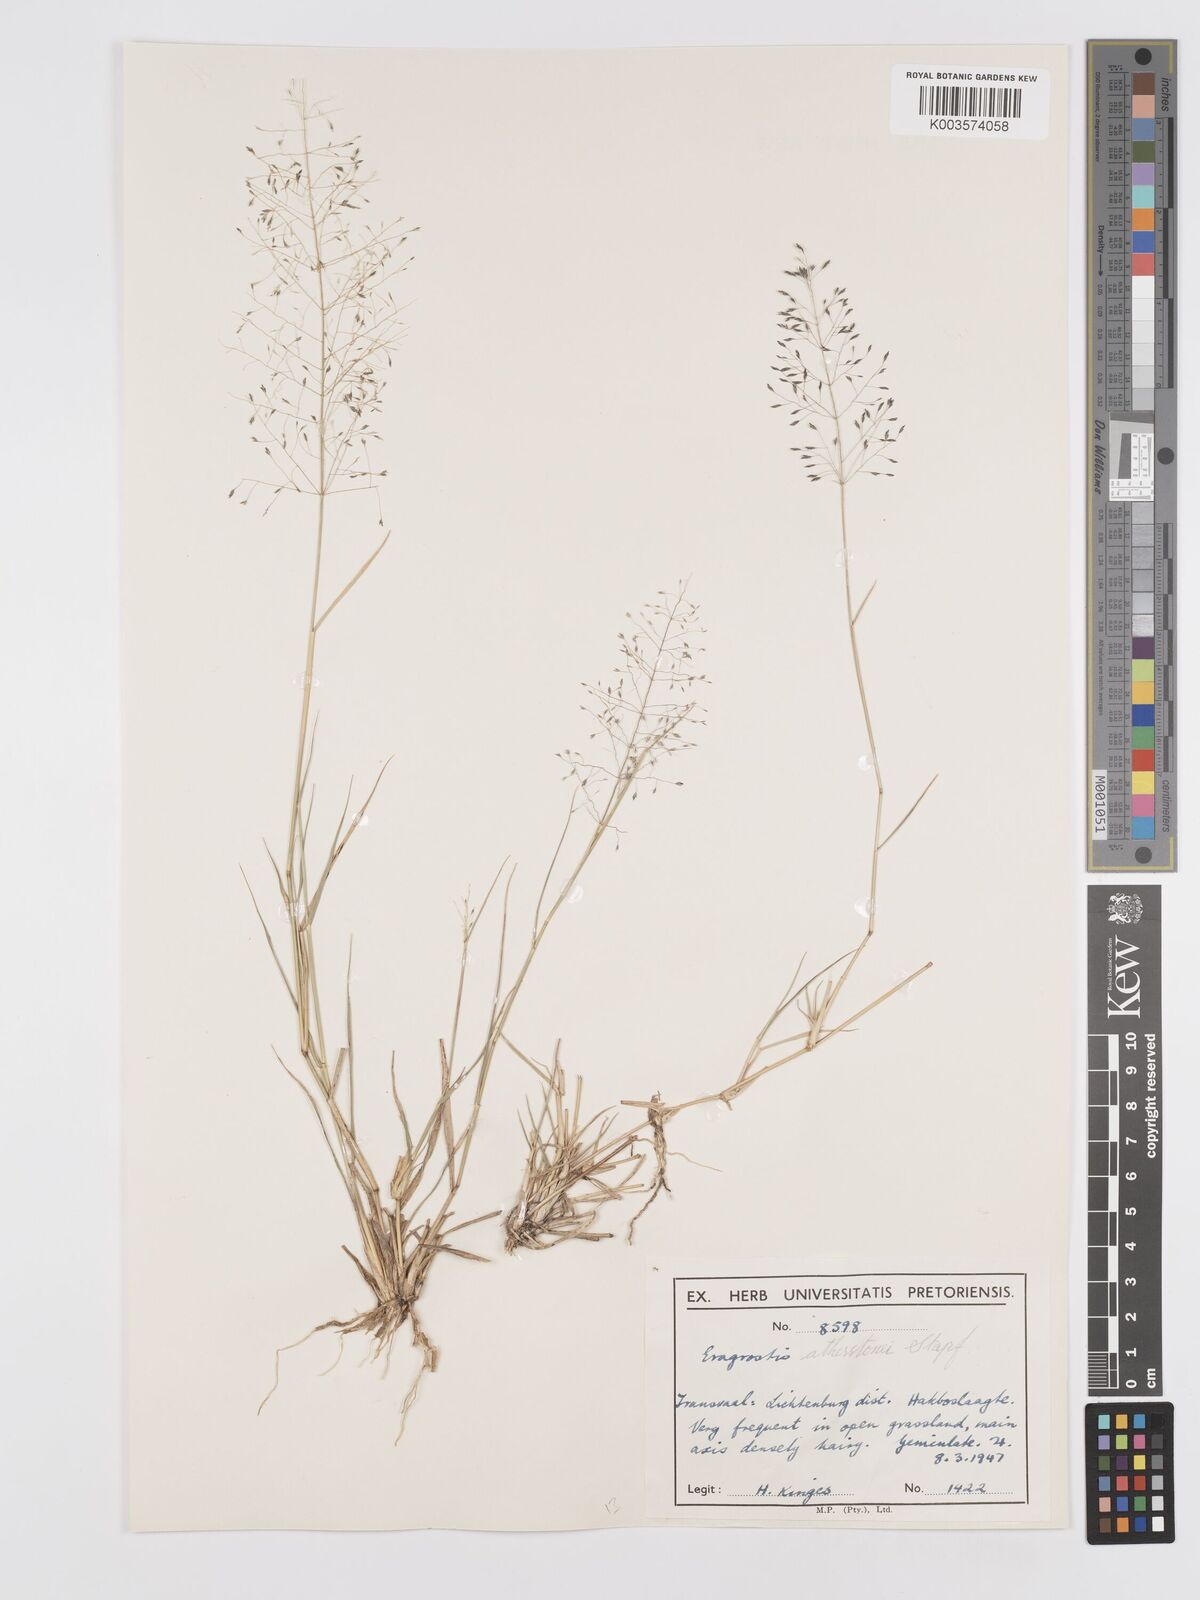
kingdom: Plantae
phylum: Tracheophyta
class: Liliopsida
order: Poales
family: Poaceae
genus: Eragrostis
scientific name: Eragrostis cylindriflora
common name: Cylinderflower lovegrass
